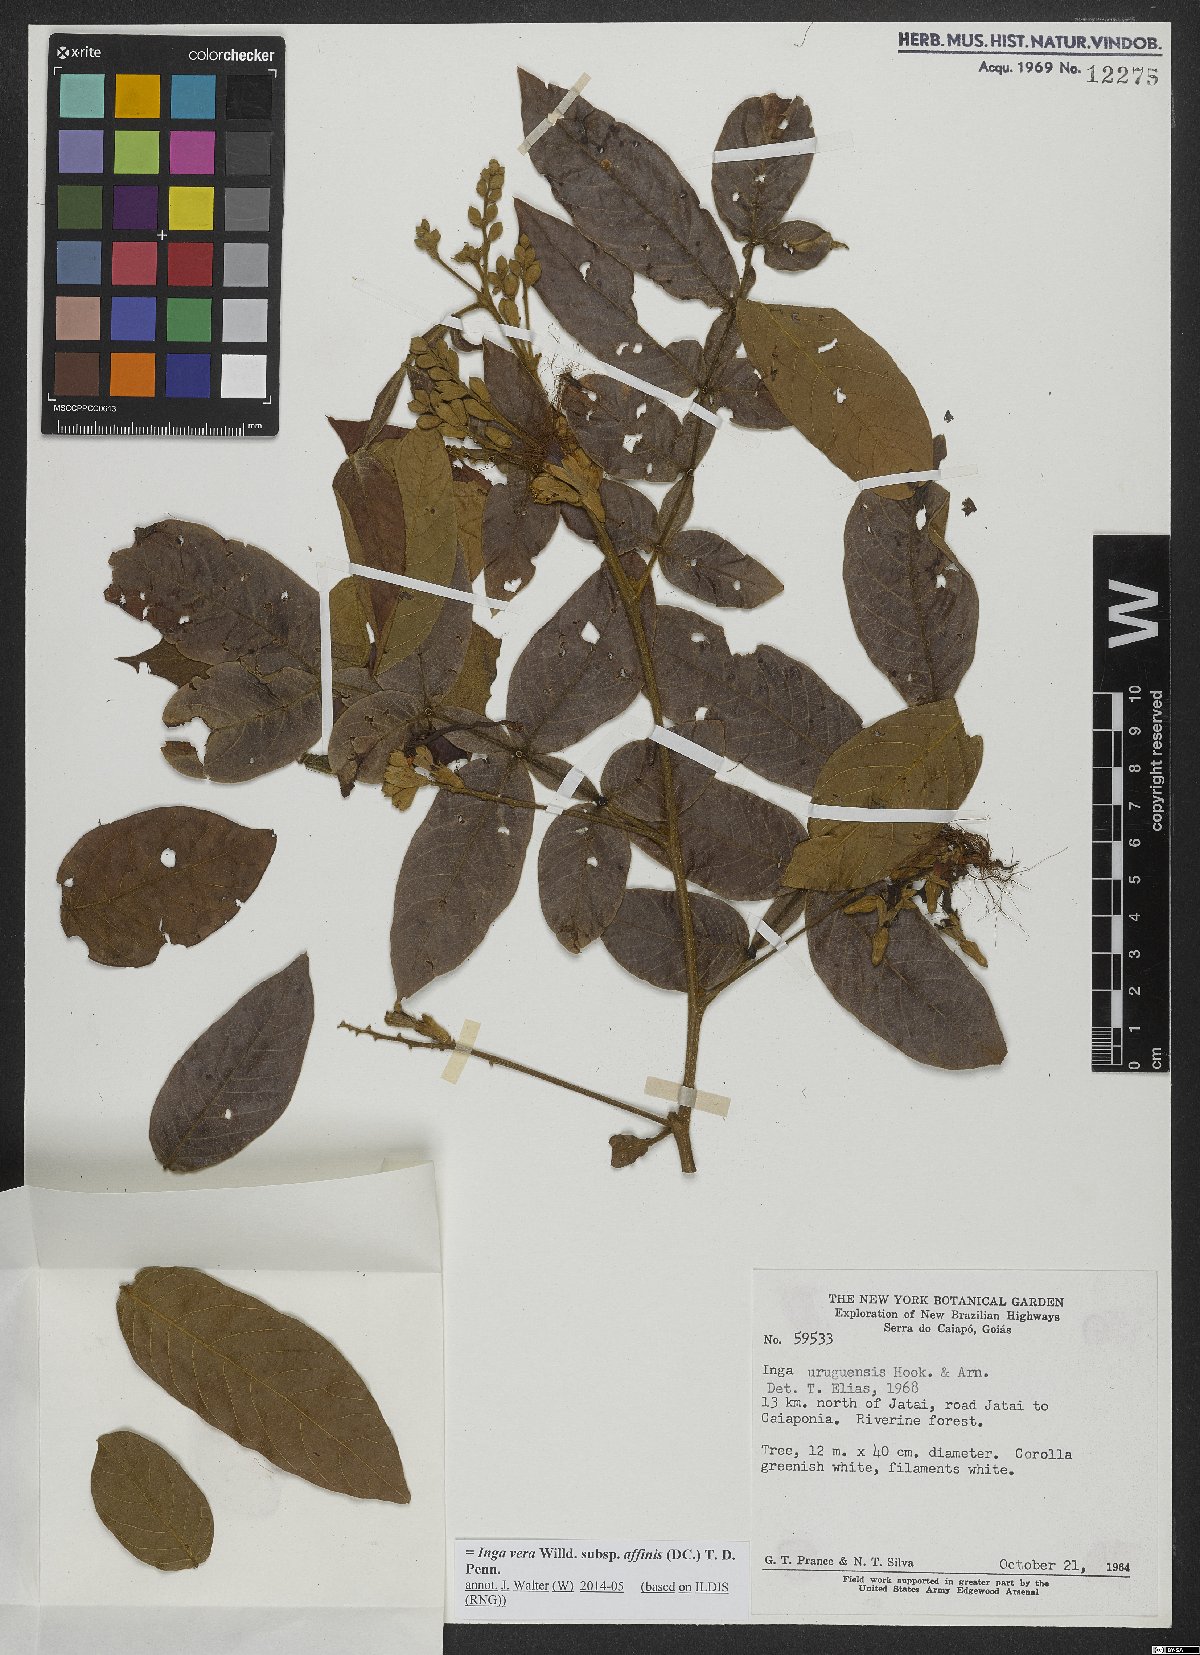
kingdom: Plantae
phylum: Tracheophyta
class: Magnoliopsida
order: Fabales
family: Fabaceae
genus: Inga
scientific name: Inga affinis
